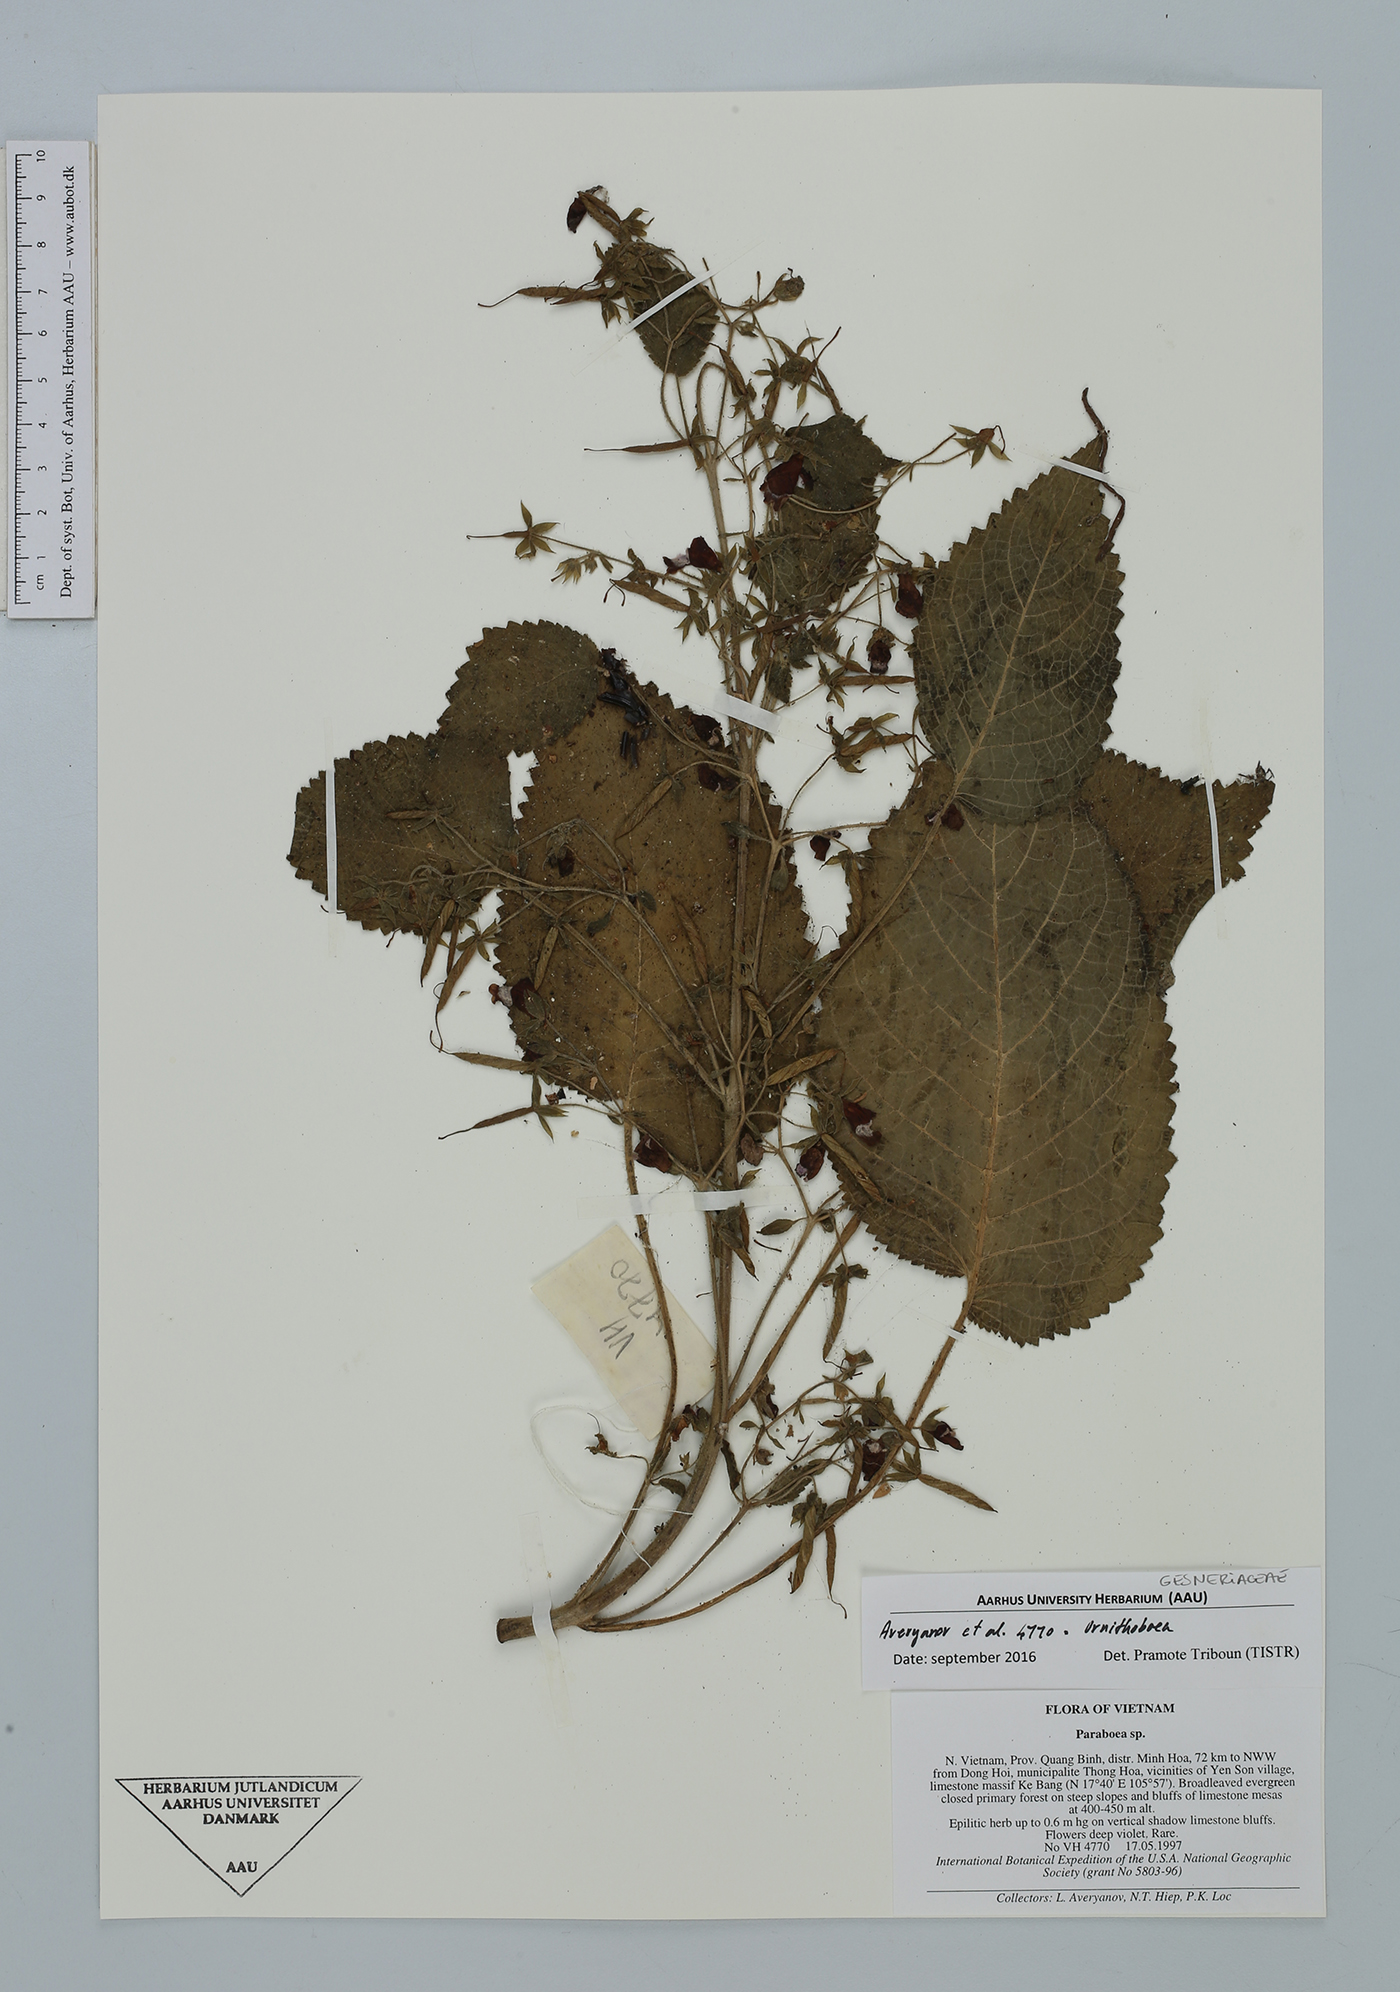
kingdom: Plantae
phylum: Tracheophyta
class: Magnoliopsida
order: Lamiales
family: Gesneriaceae
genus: Ornithoboea
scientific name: Ornithoboea
